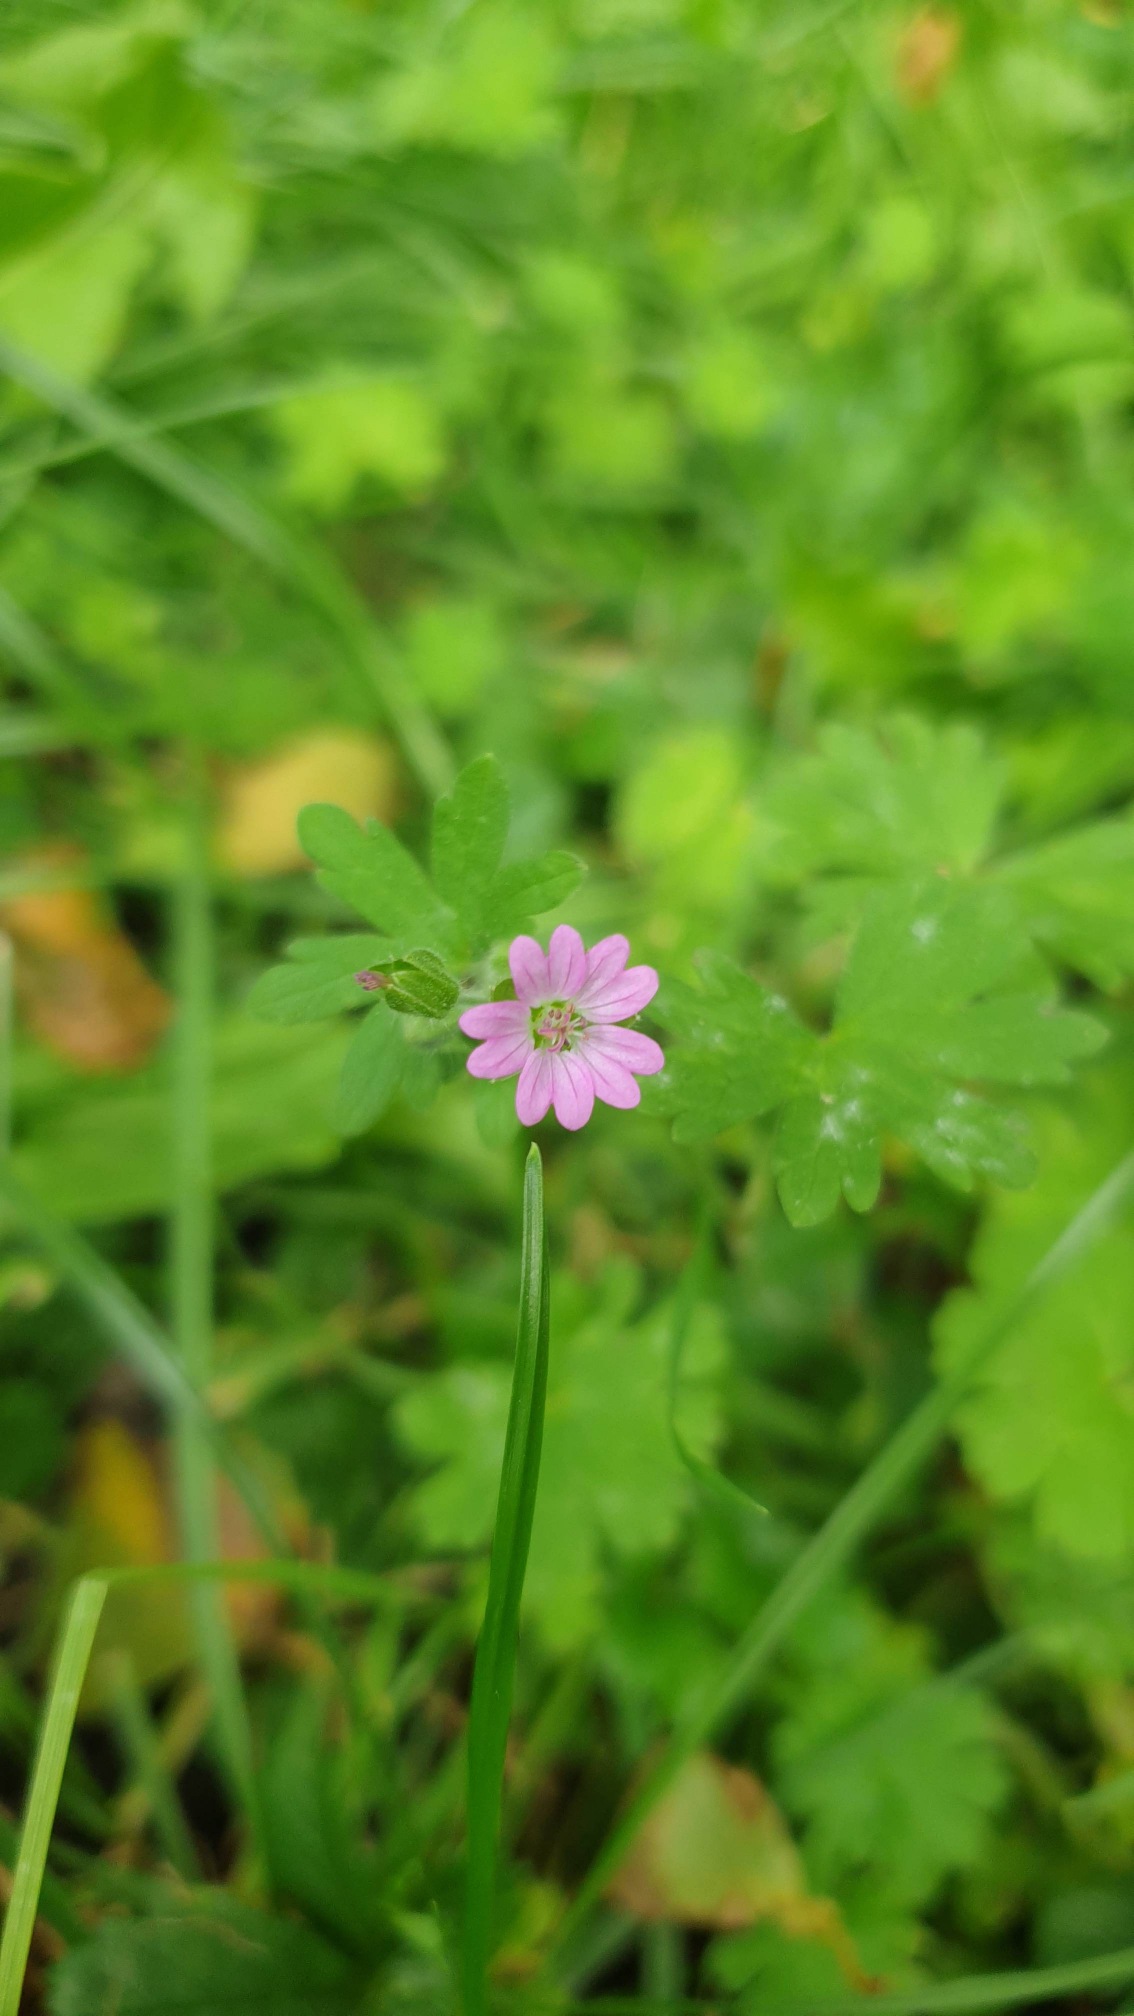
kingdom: Plantae
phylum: Tracheophyta
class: Magnoliopsida
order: Geraniales
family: Geraniaceae
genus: Geranium
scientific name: Geranium molle
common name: Blød storkenæb
